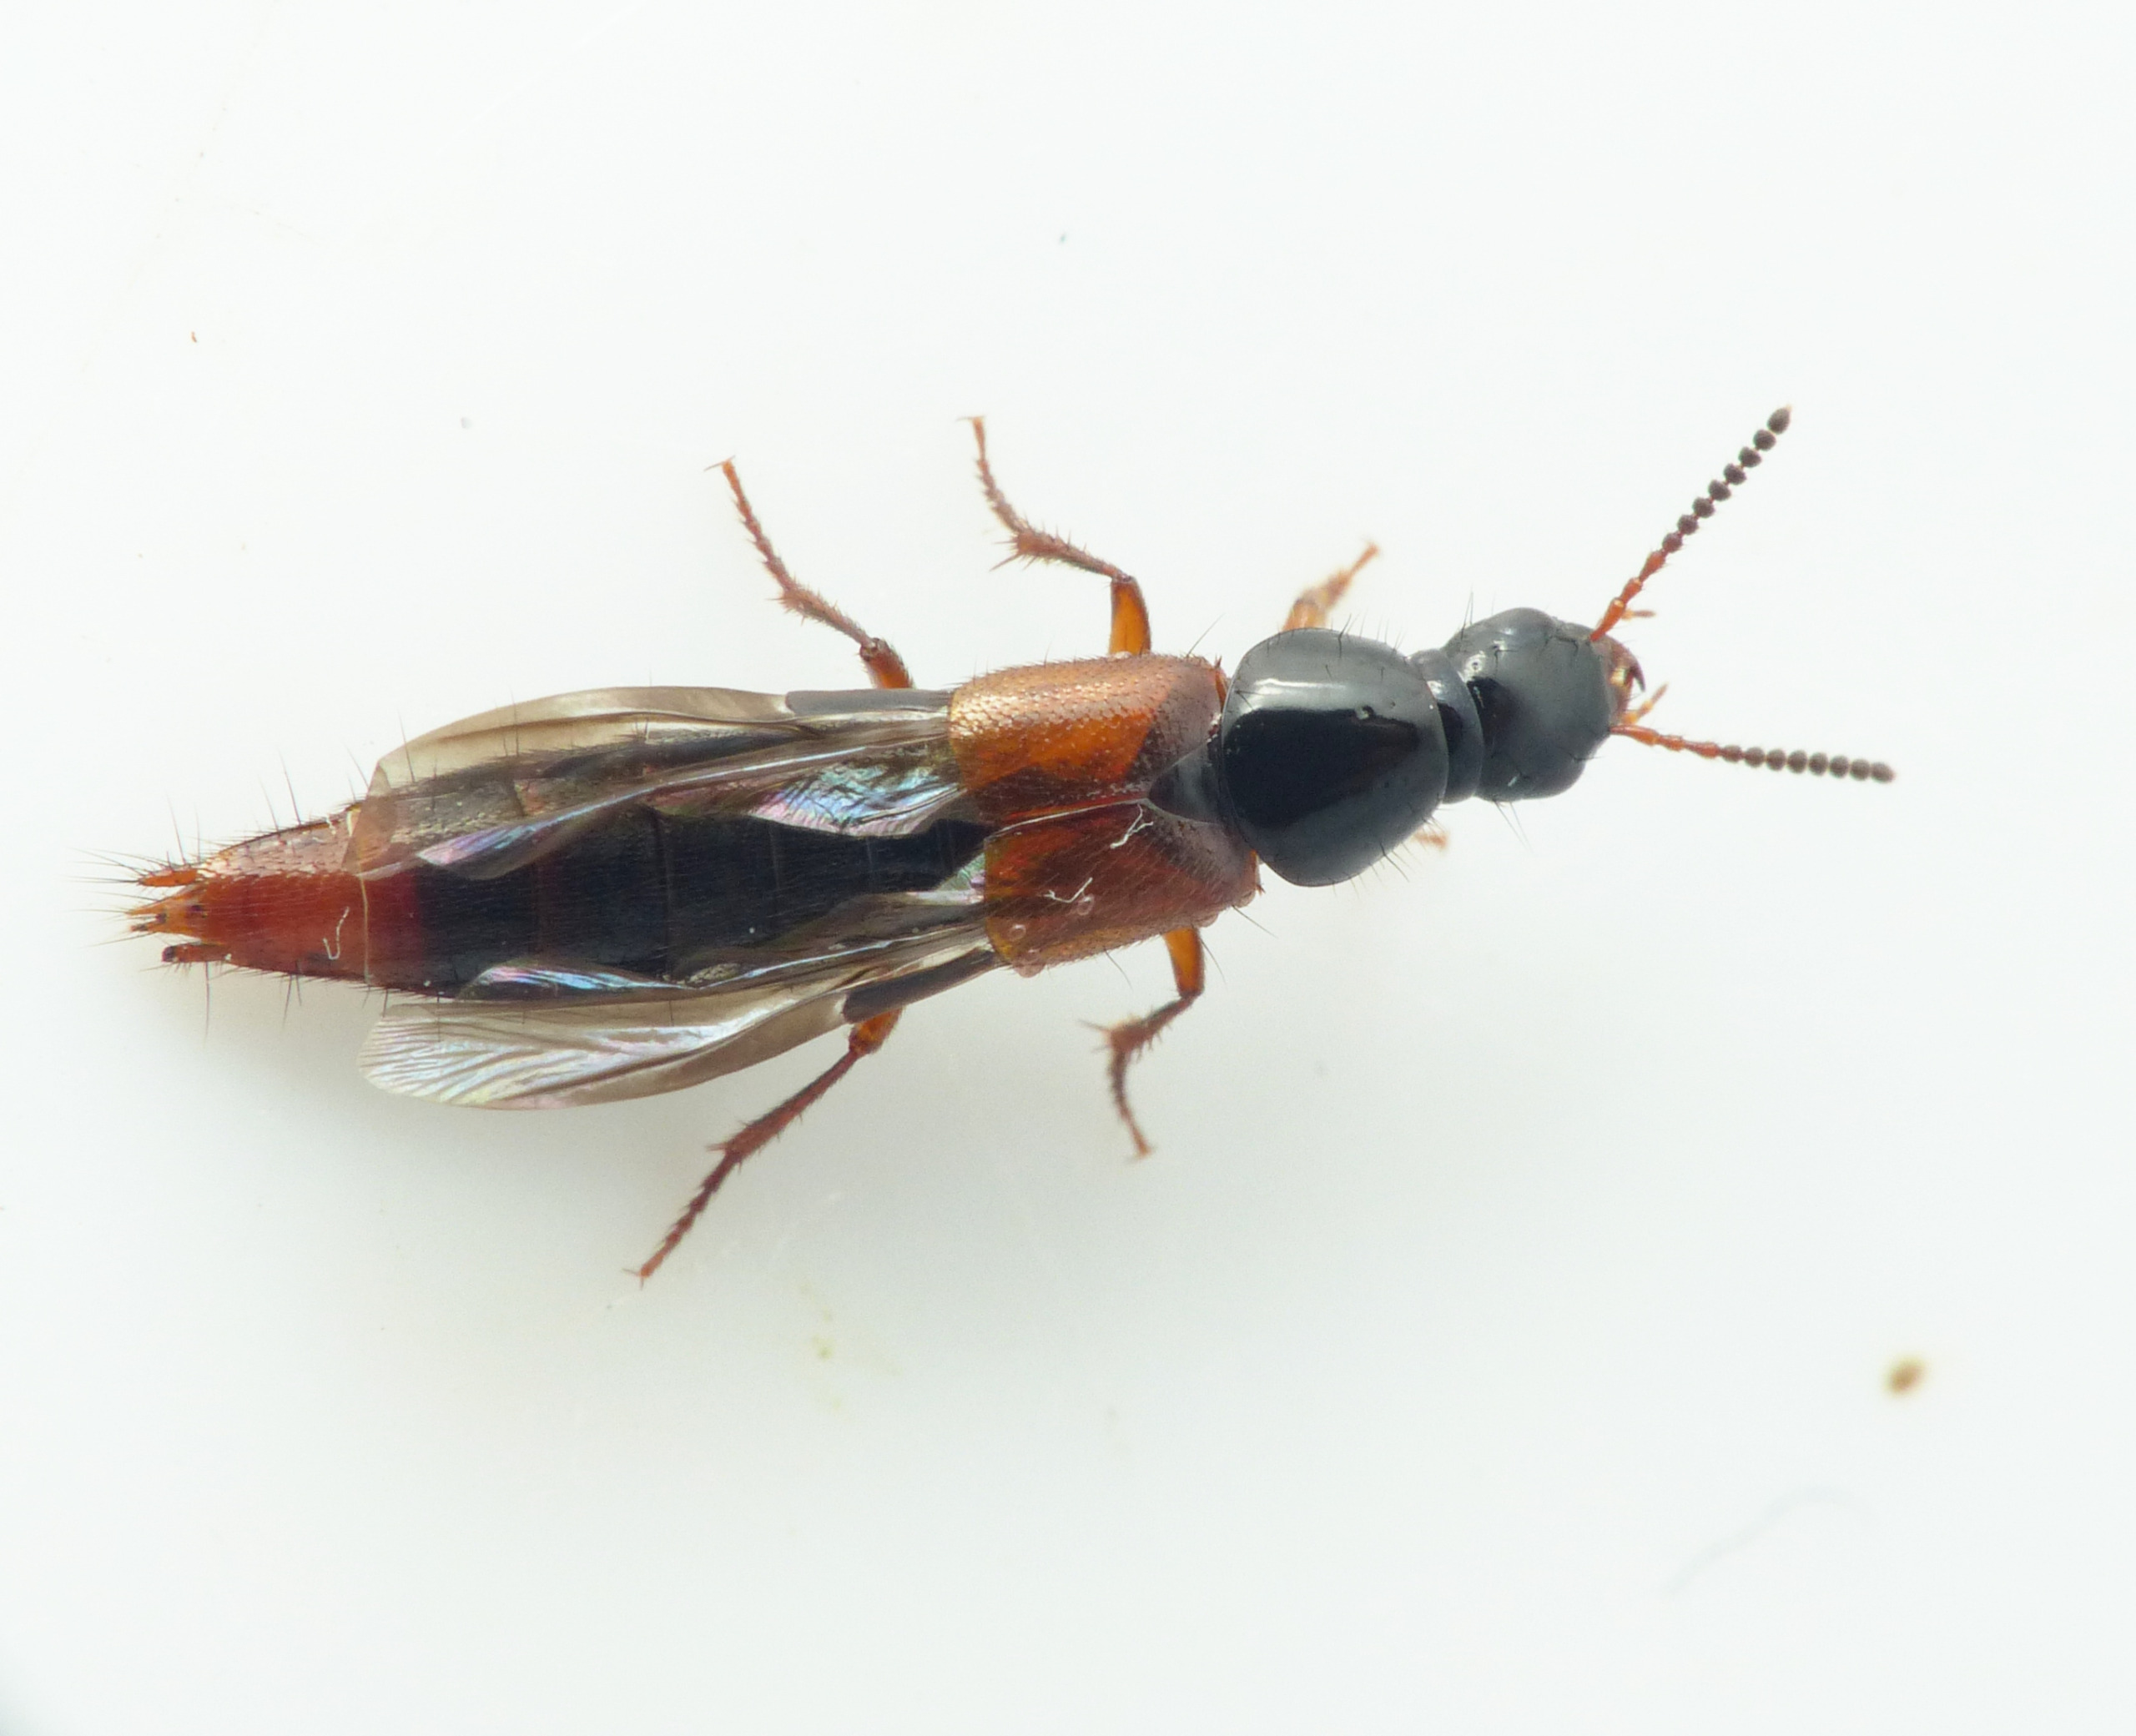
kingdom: Animalia
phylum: Arthropoda
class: Insecta
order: Coleoptera
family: Staphylinidae
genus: Quedius
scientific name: Quedius cruentus
